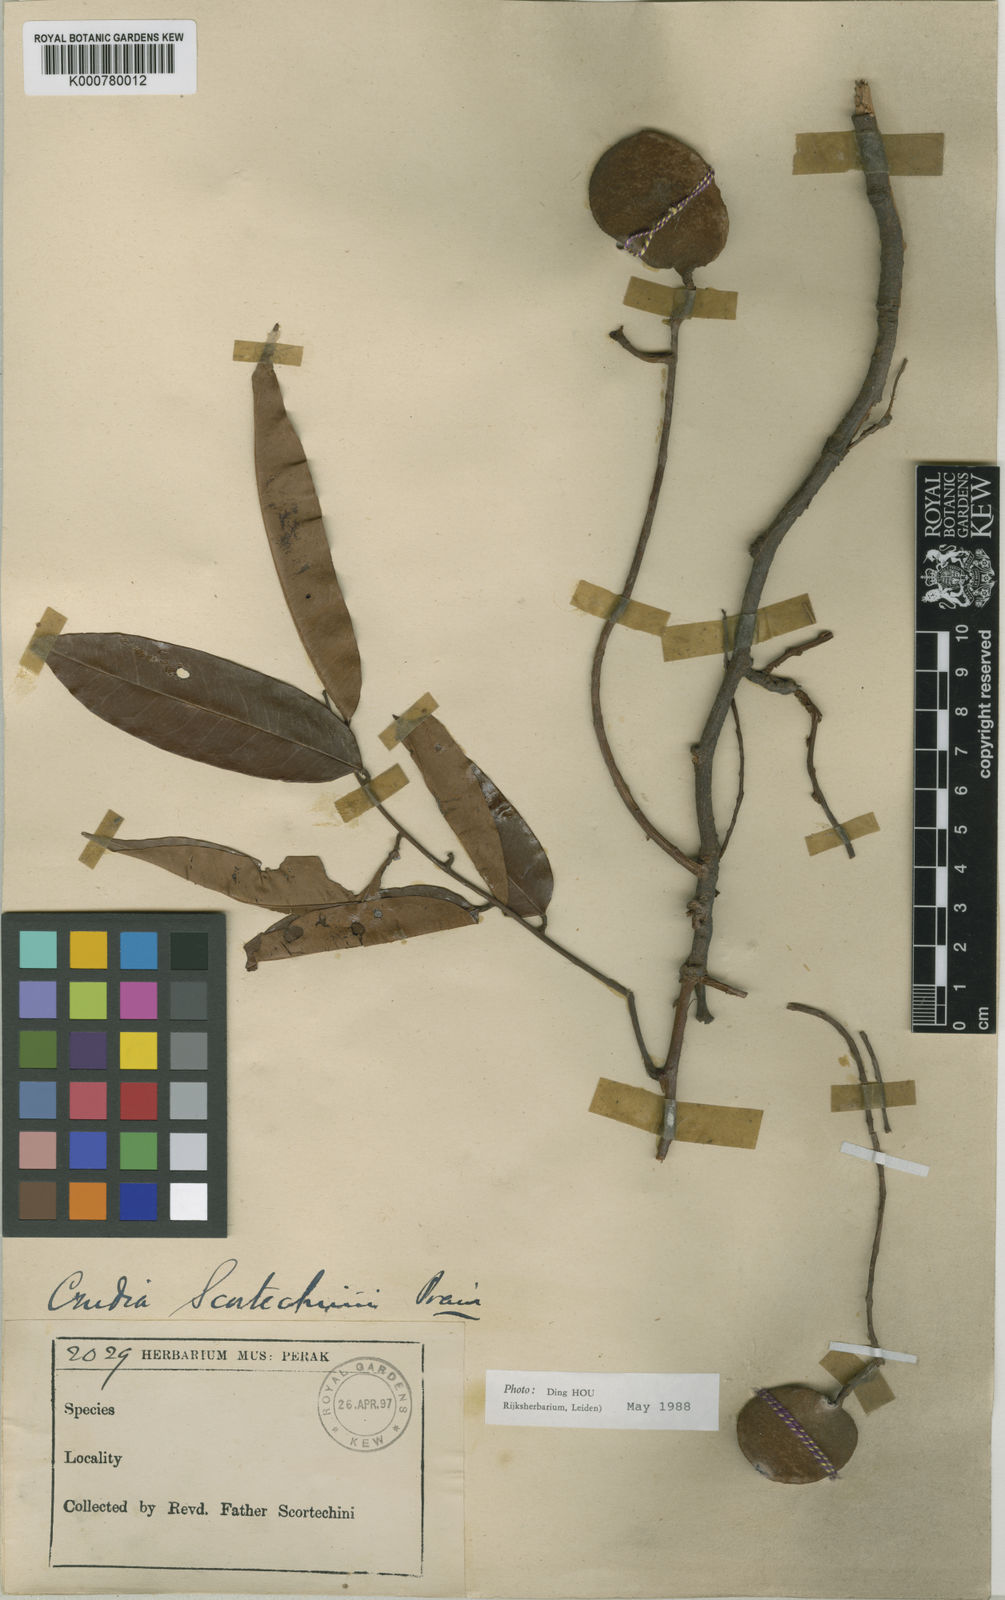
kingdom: Plantae
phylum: Tracheophyta
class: Magnoliopsida
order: Fabales
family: Fabaceae
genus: Crudia
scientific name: Crudia curtisii
